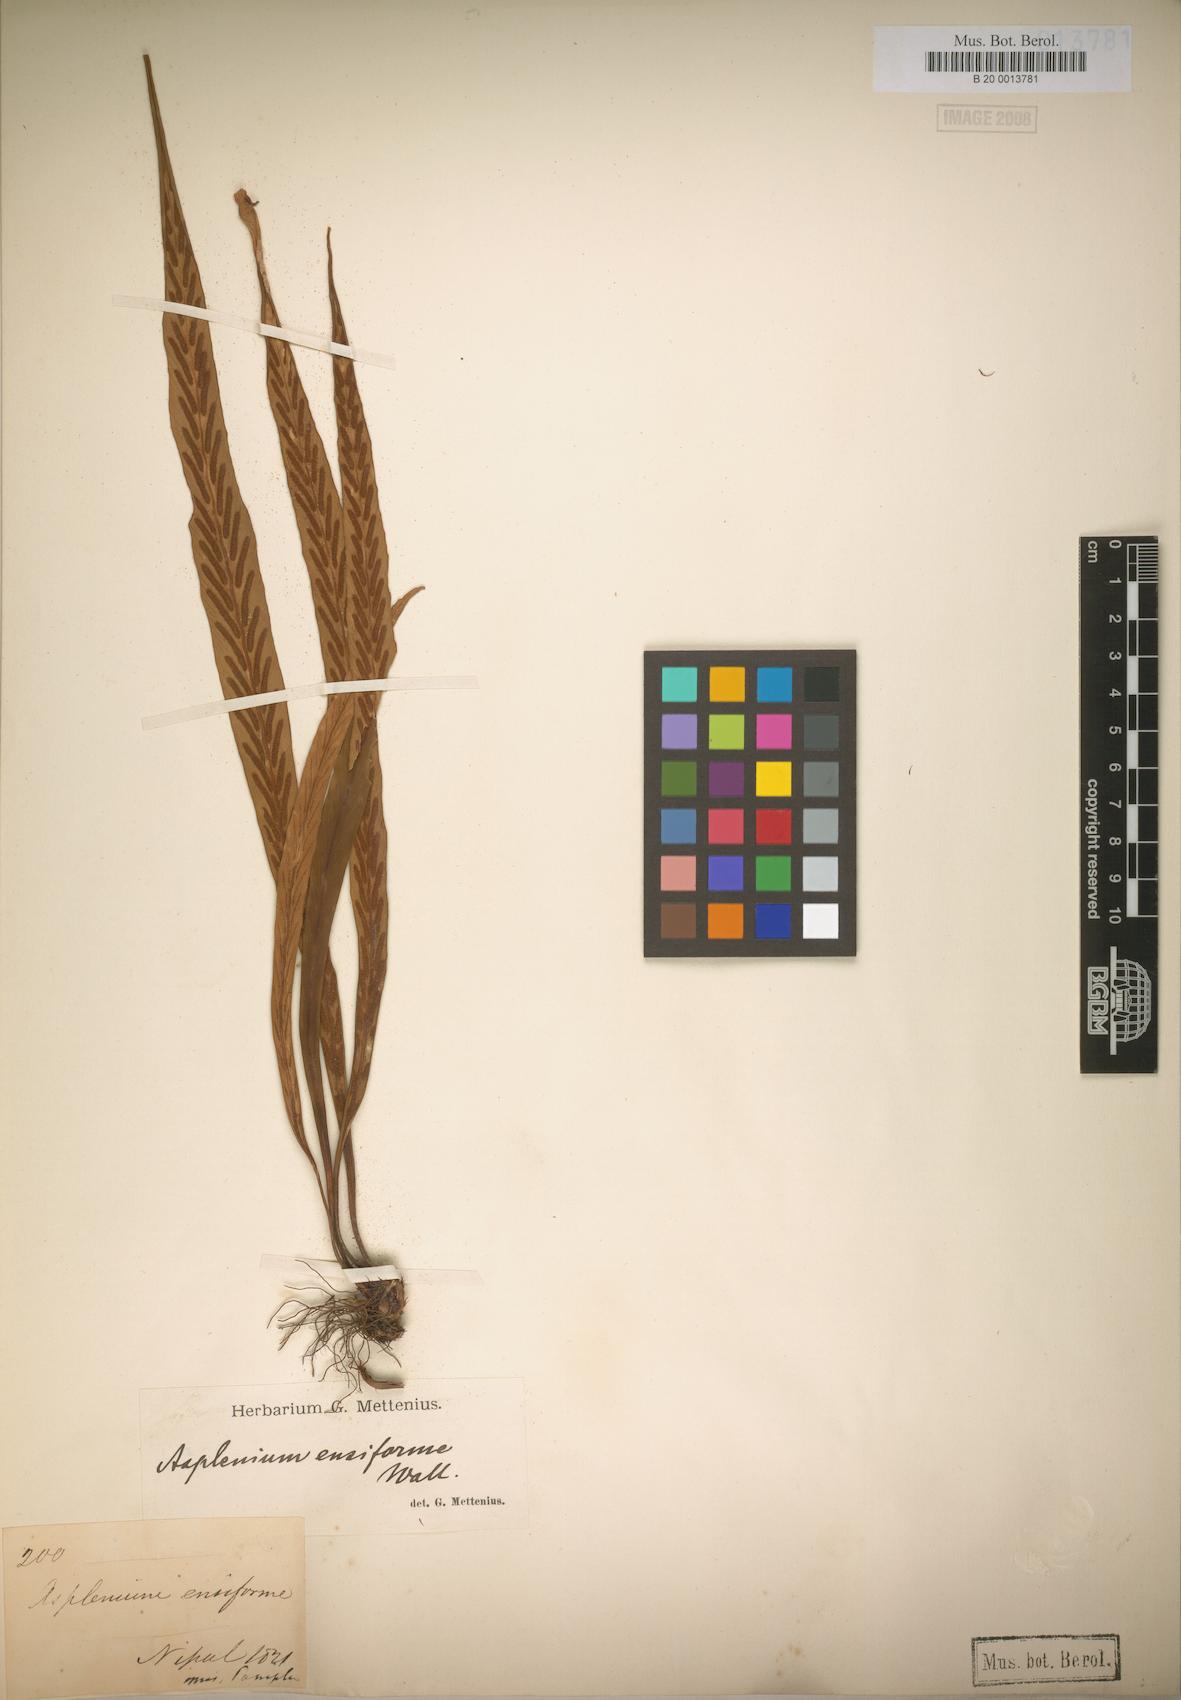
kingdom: Plantae
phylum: Tracheophyta
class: Polypodiopsida
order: Polypodiales
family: Aspleniaceae
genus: Asplenium
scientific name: Asplenium ensiforme
